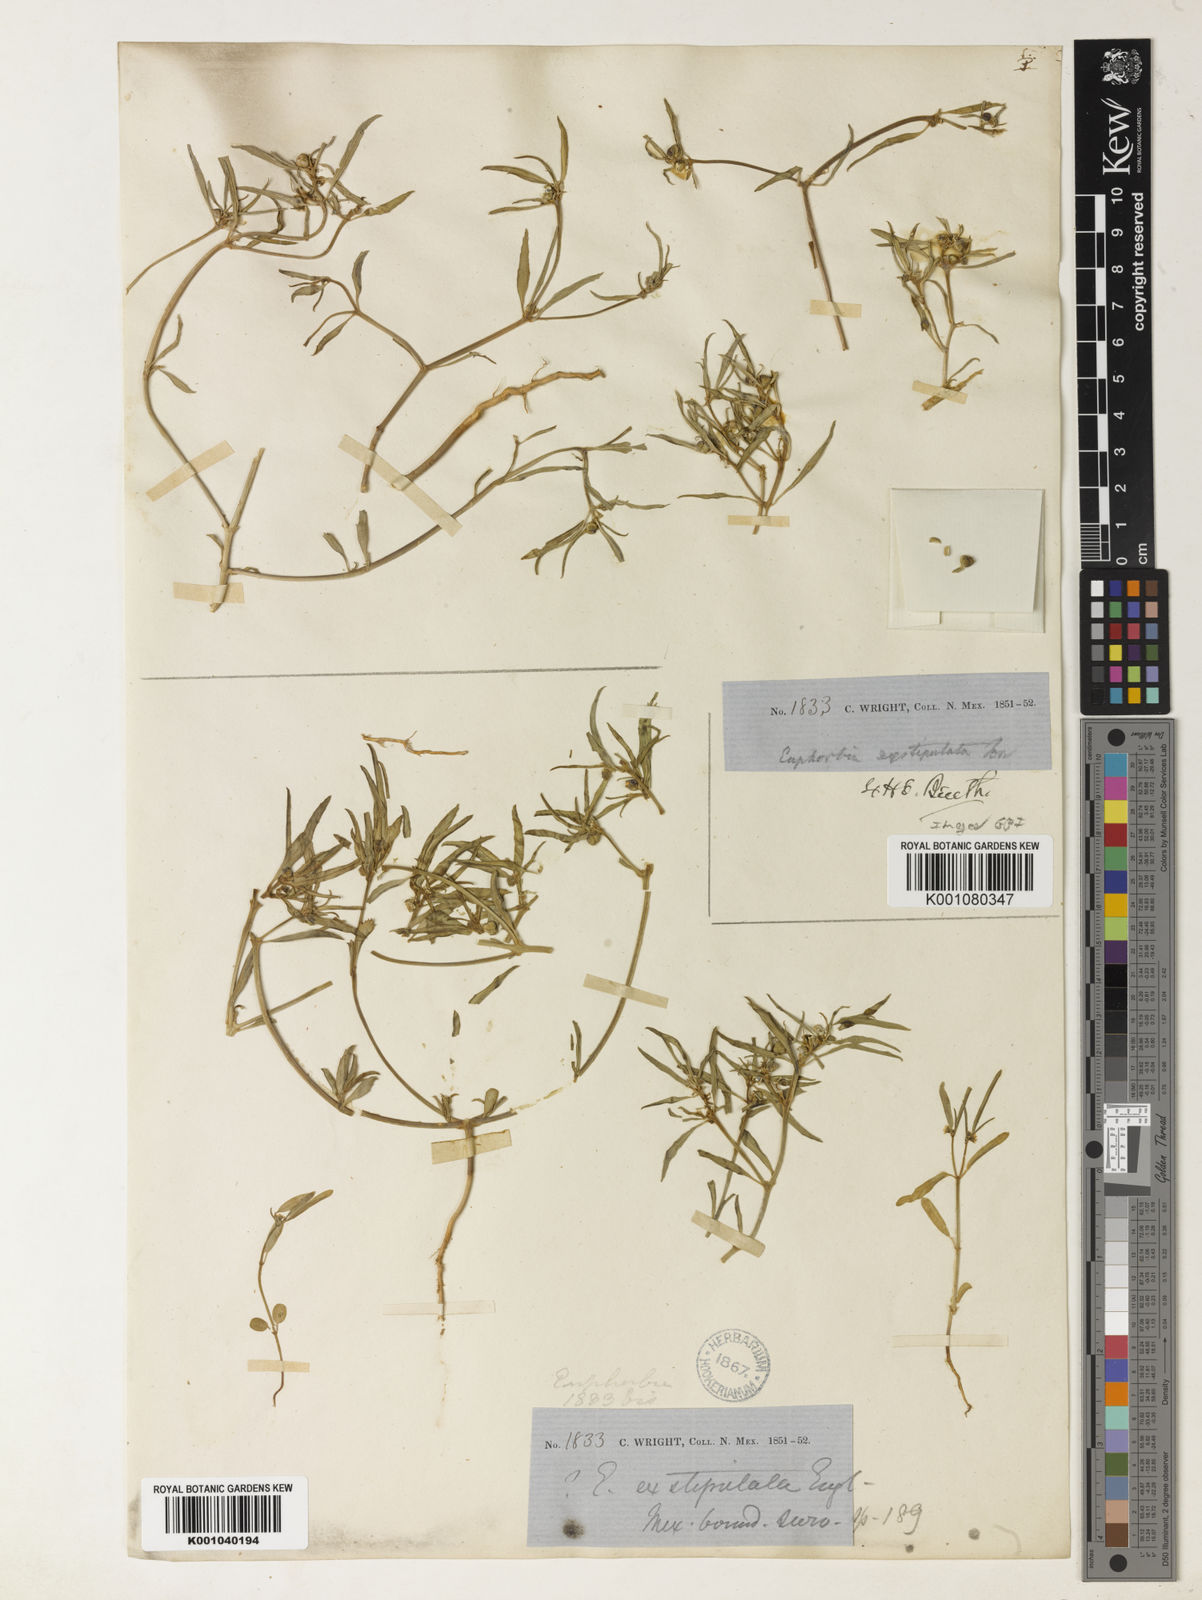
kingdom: Plantae
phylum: Tracheophyta
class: Magnoliopsida
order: Malpighiales
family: Euphorbiaceae
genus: Euphorbia
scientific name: Euphorbia exstipulata
